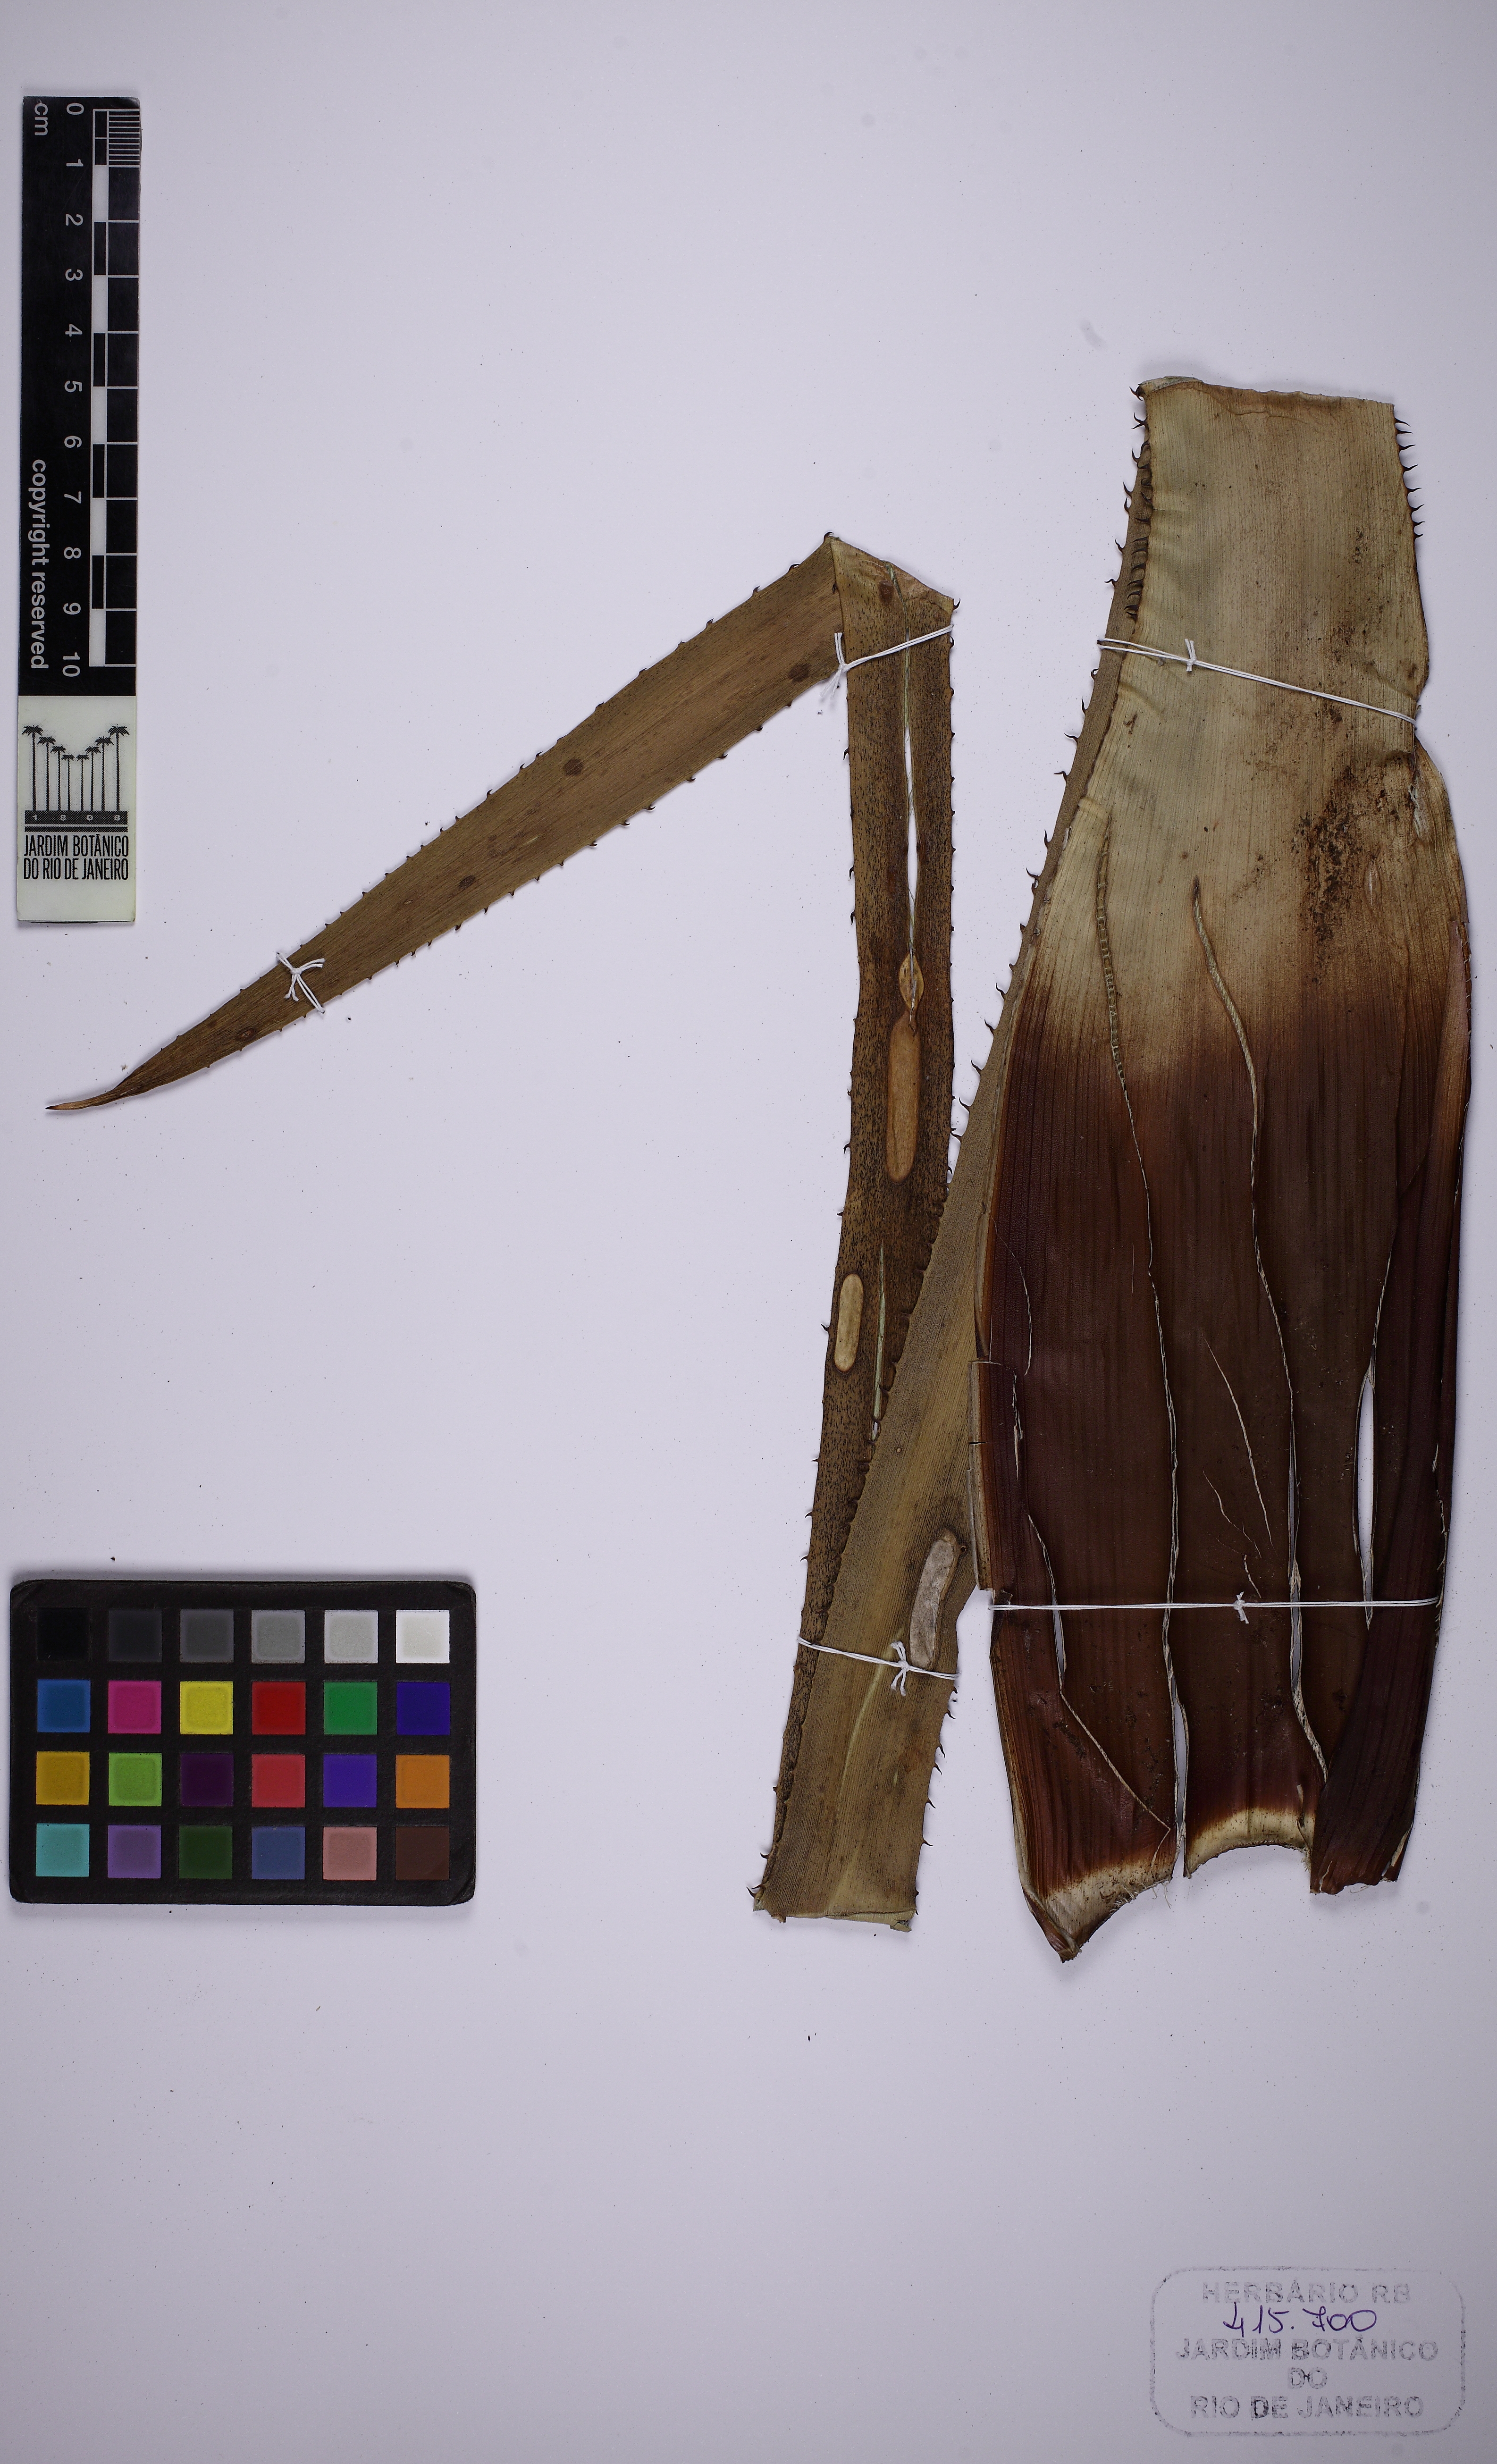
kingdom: Plantae
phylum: Tracheophyta
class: Liliopsida
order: Poales
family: Bromeliaceae
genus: Hohenbergia
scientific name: Hohenbergia ridleyi
